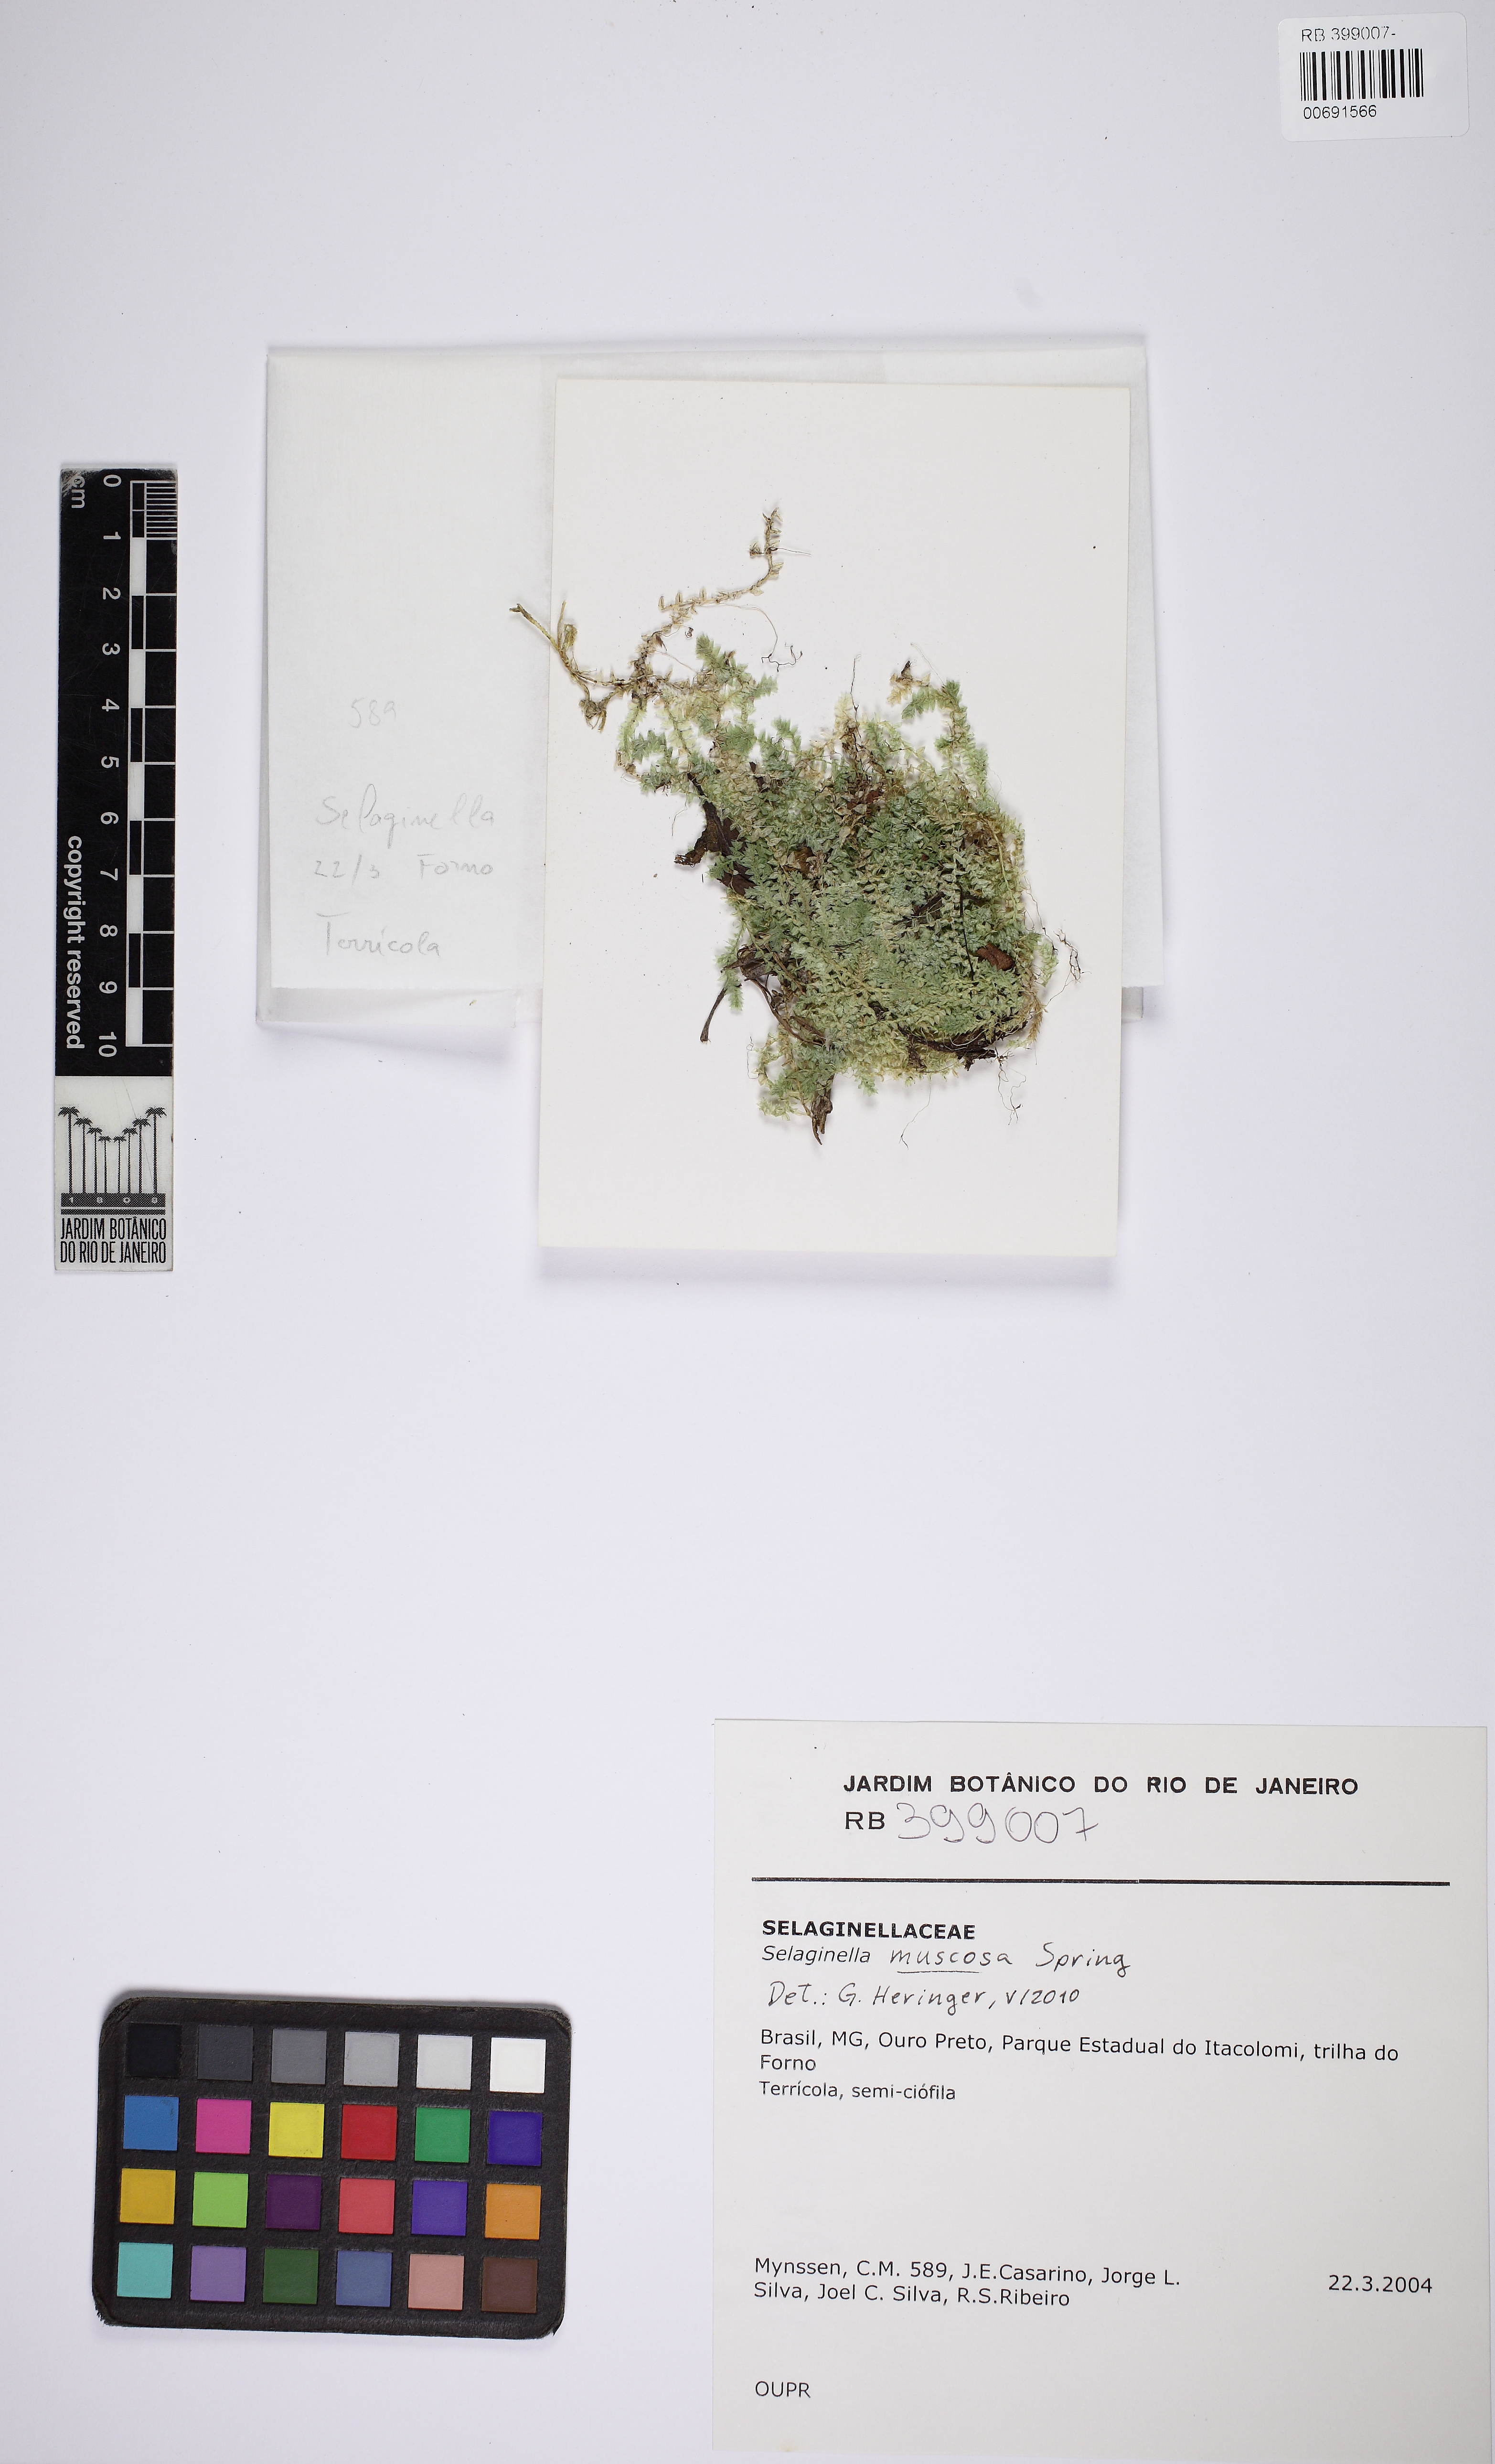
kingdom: Plantae
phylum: Tracheophyta
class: Lycopodiopsida
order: Selaginellales
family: Selaginellaceae
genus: Selaginella
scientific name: Selaginella muscosa
